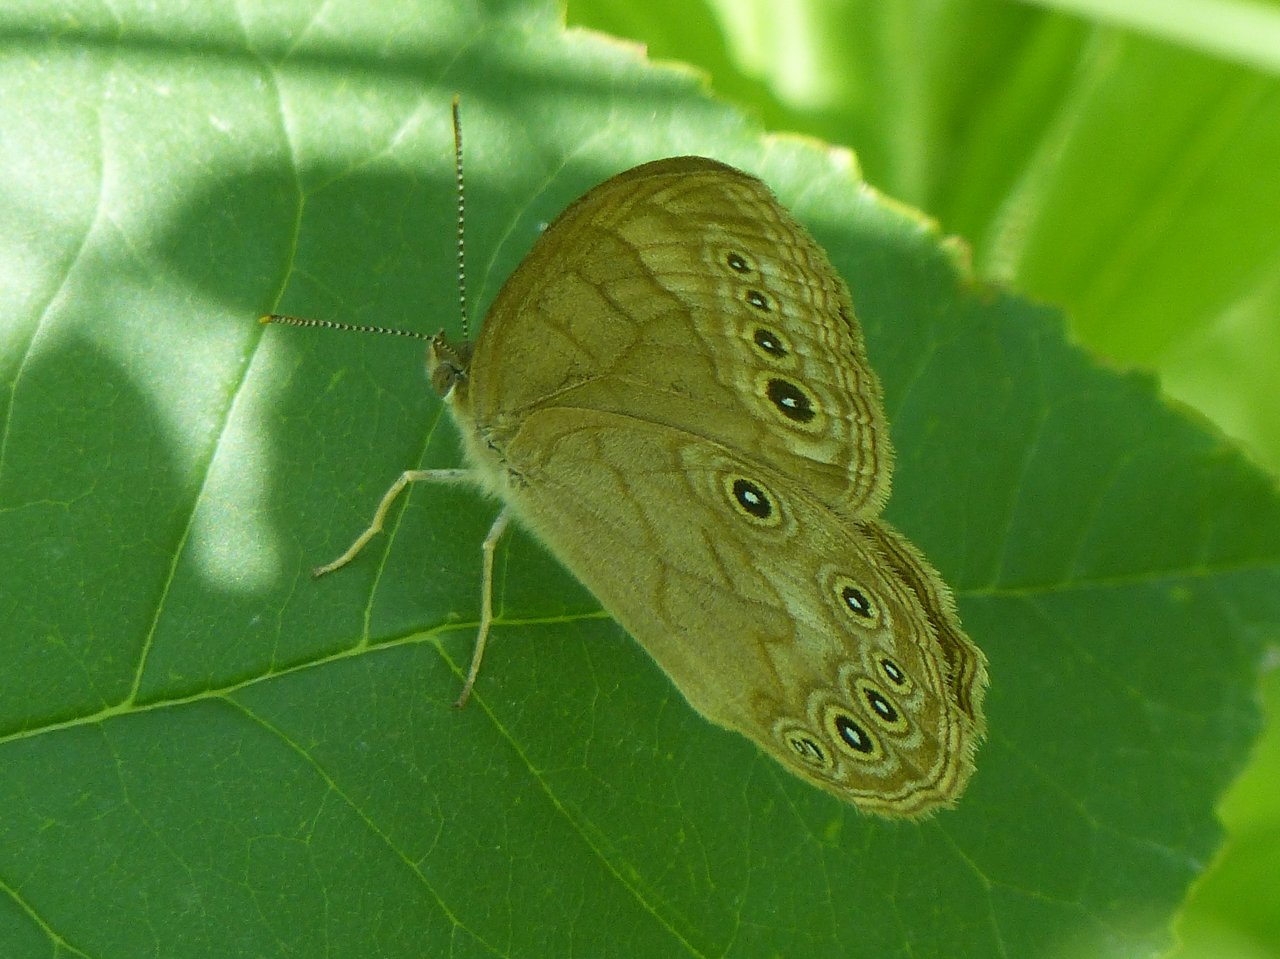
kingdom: Animalia
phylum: Arthropoda
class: Insecta
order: Lepidoptera
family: Nymphalidae
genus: Lethe
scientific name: Lethe eurydice
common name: Eyed Brown
